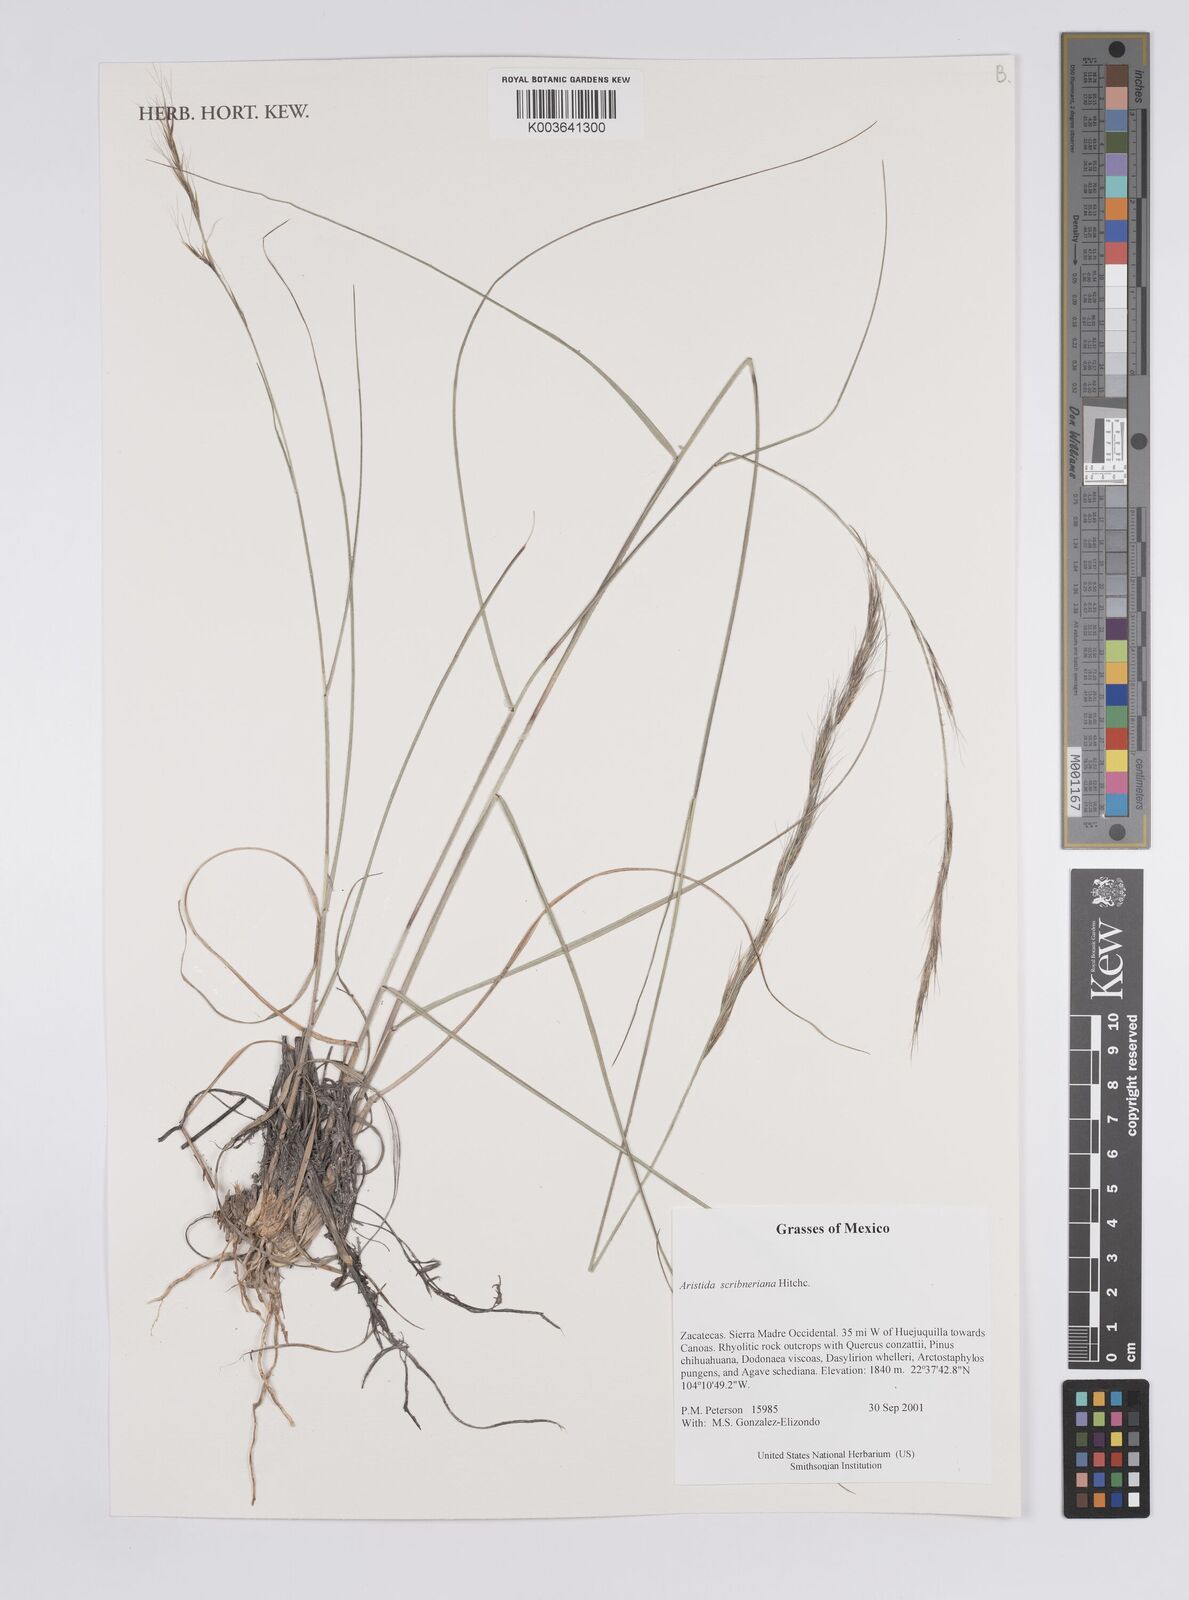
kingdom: Plantae
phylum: Tracheophyta
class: Liliopsida
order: Poales
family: Poaceae
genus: Aristida
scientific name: Aristida scribneriana
